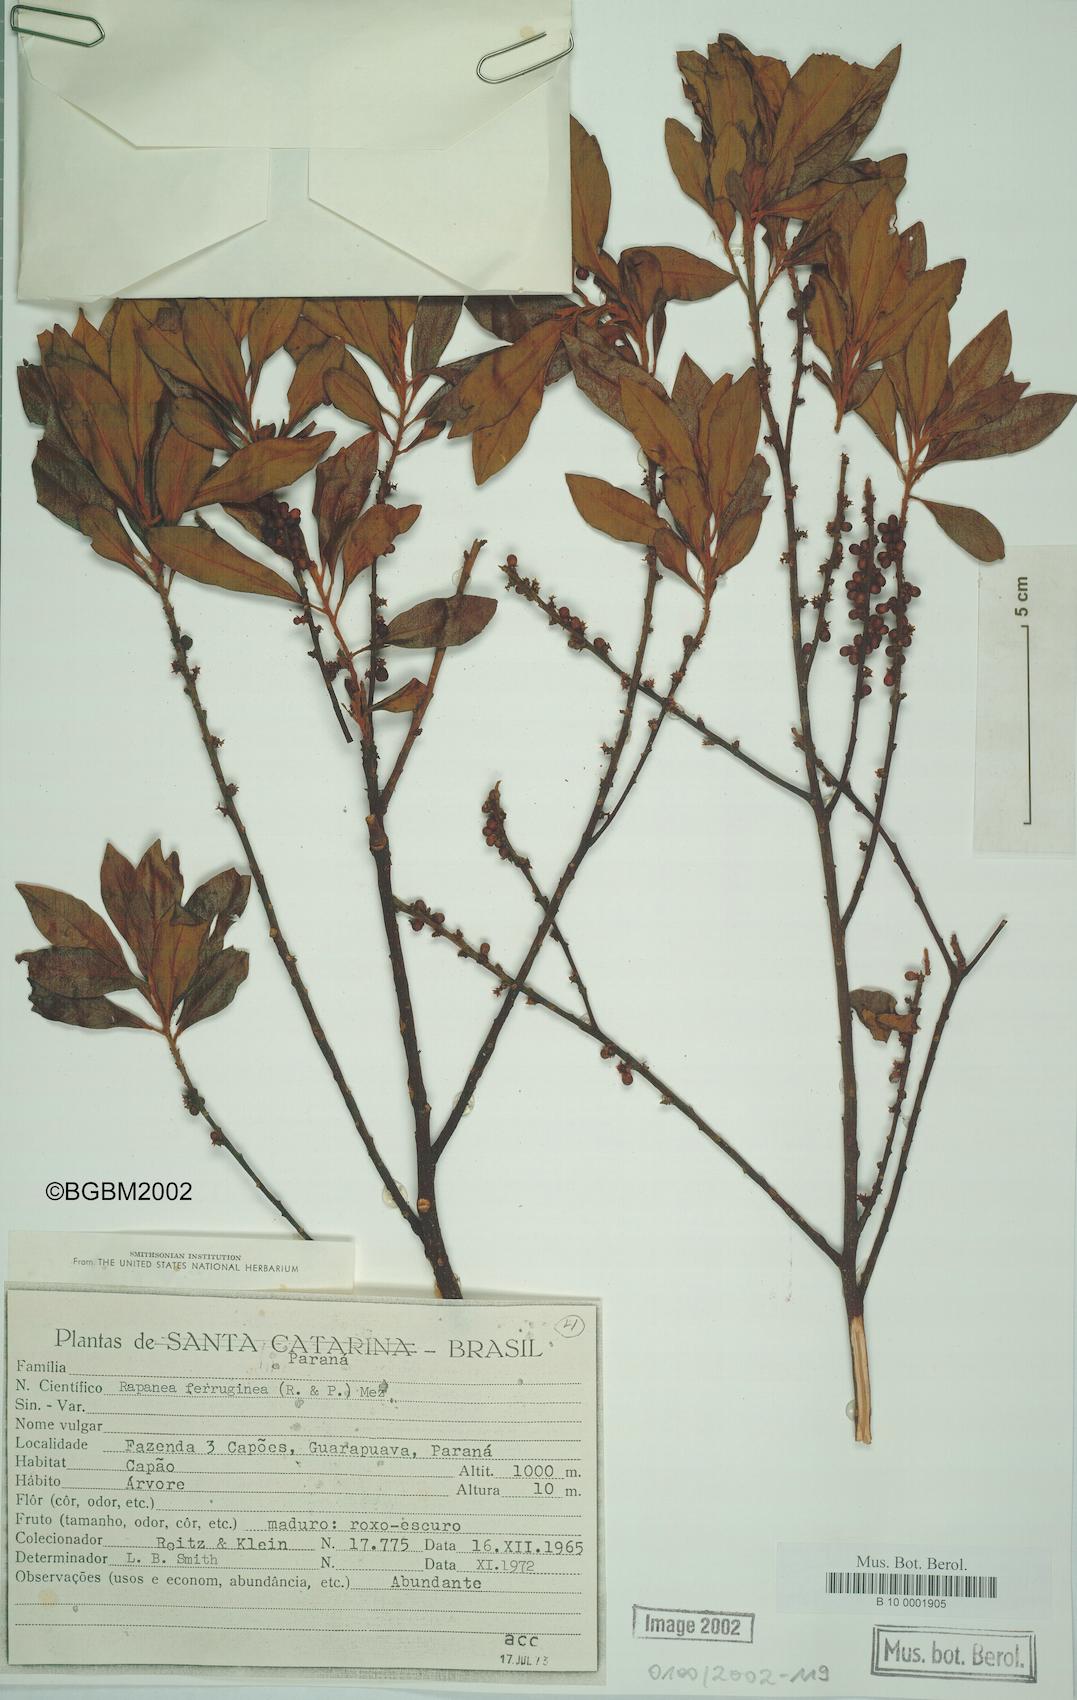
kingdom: Plantae
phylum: Tracheophyta
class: Magnoliopsida
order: Ericales
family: Primulaceae
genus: Myrsine
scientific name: Myrsine coriacea
